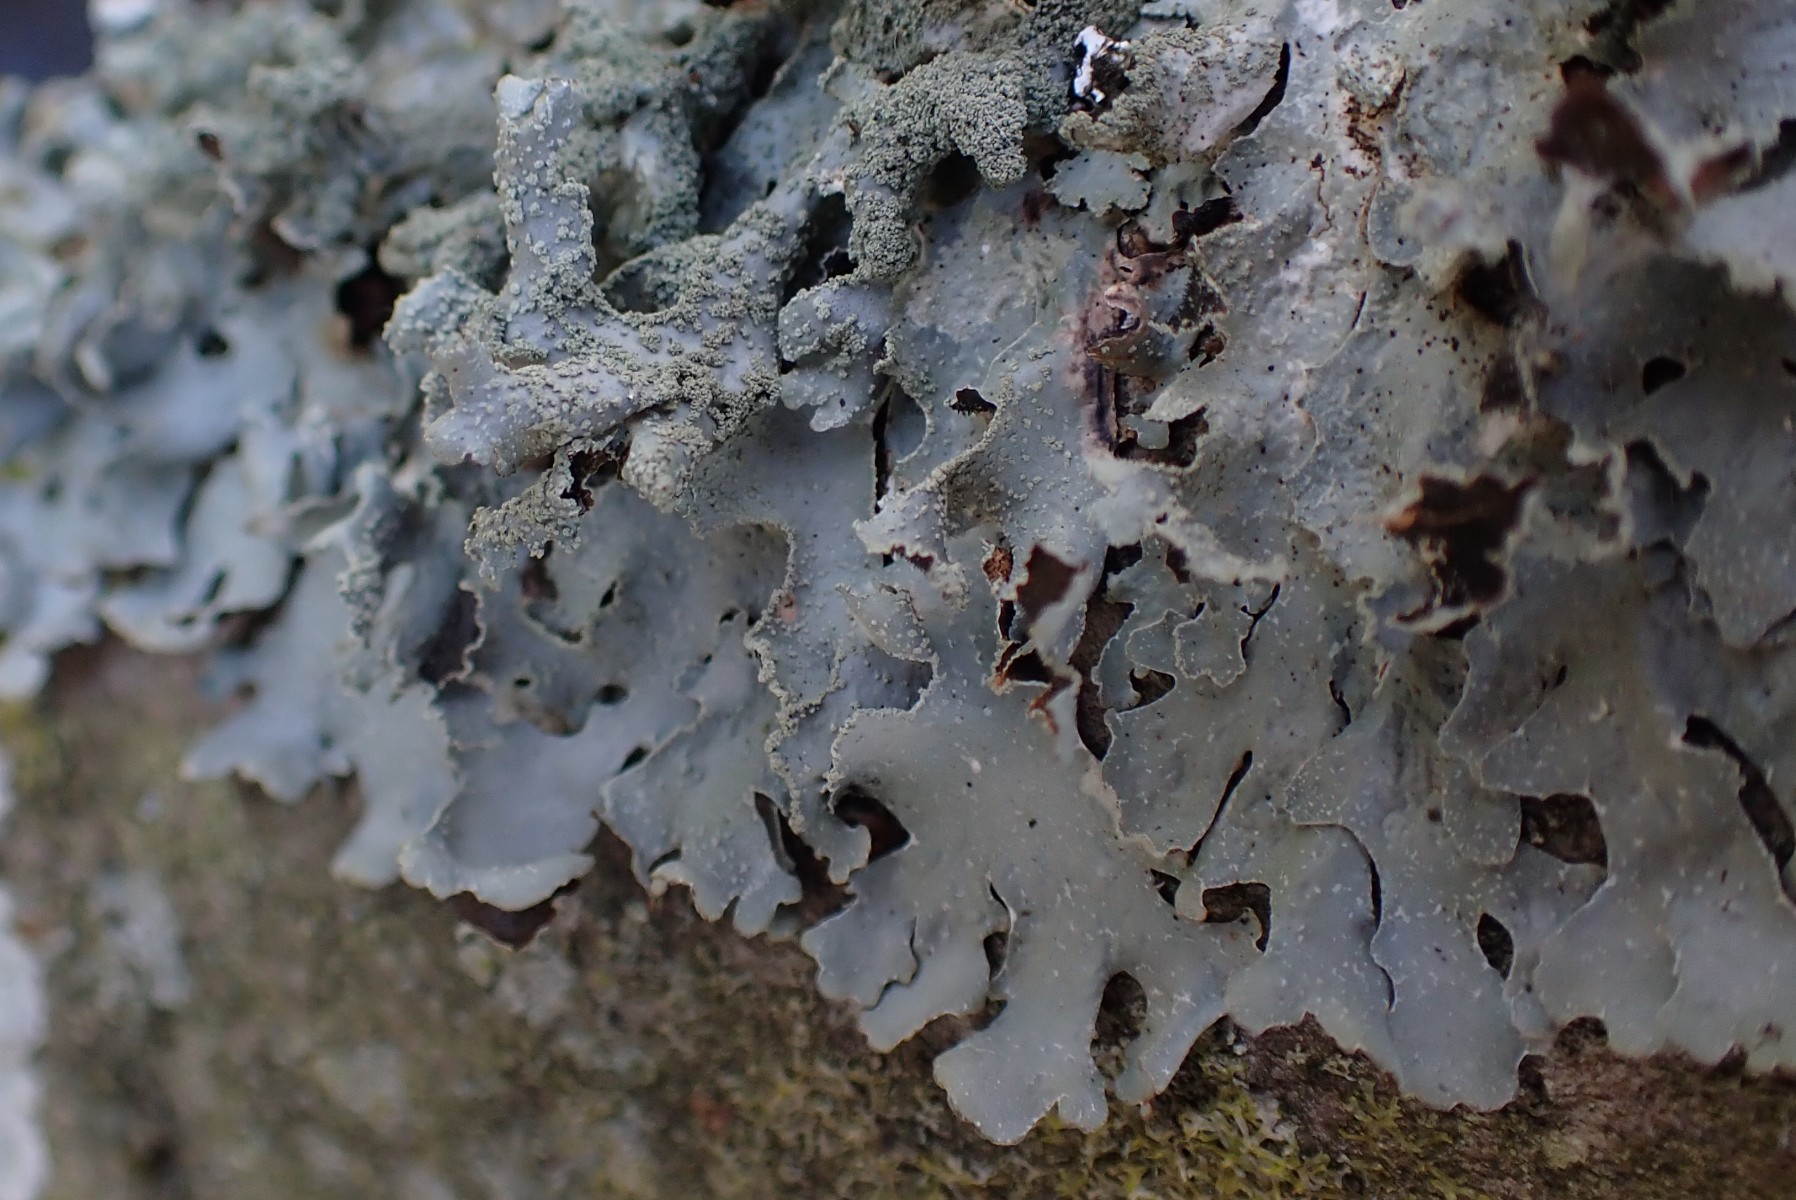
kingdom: Fungi
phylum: Ascomycota
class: Lecanoromycetes
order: Lecanorales
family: Parmeliaceae
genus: Parmelia
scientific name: Parmelia submontana
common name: langlobet skållav
